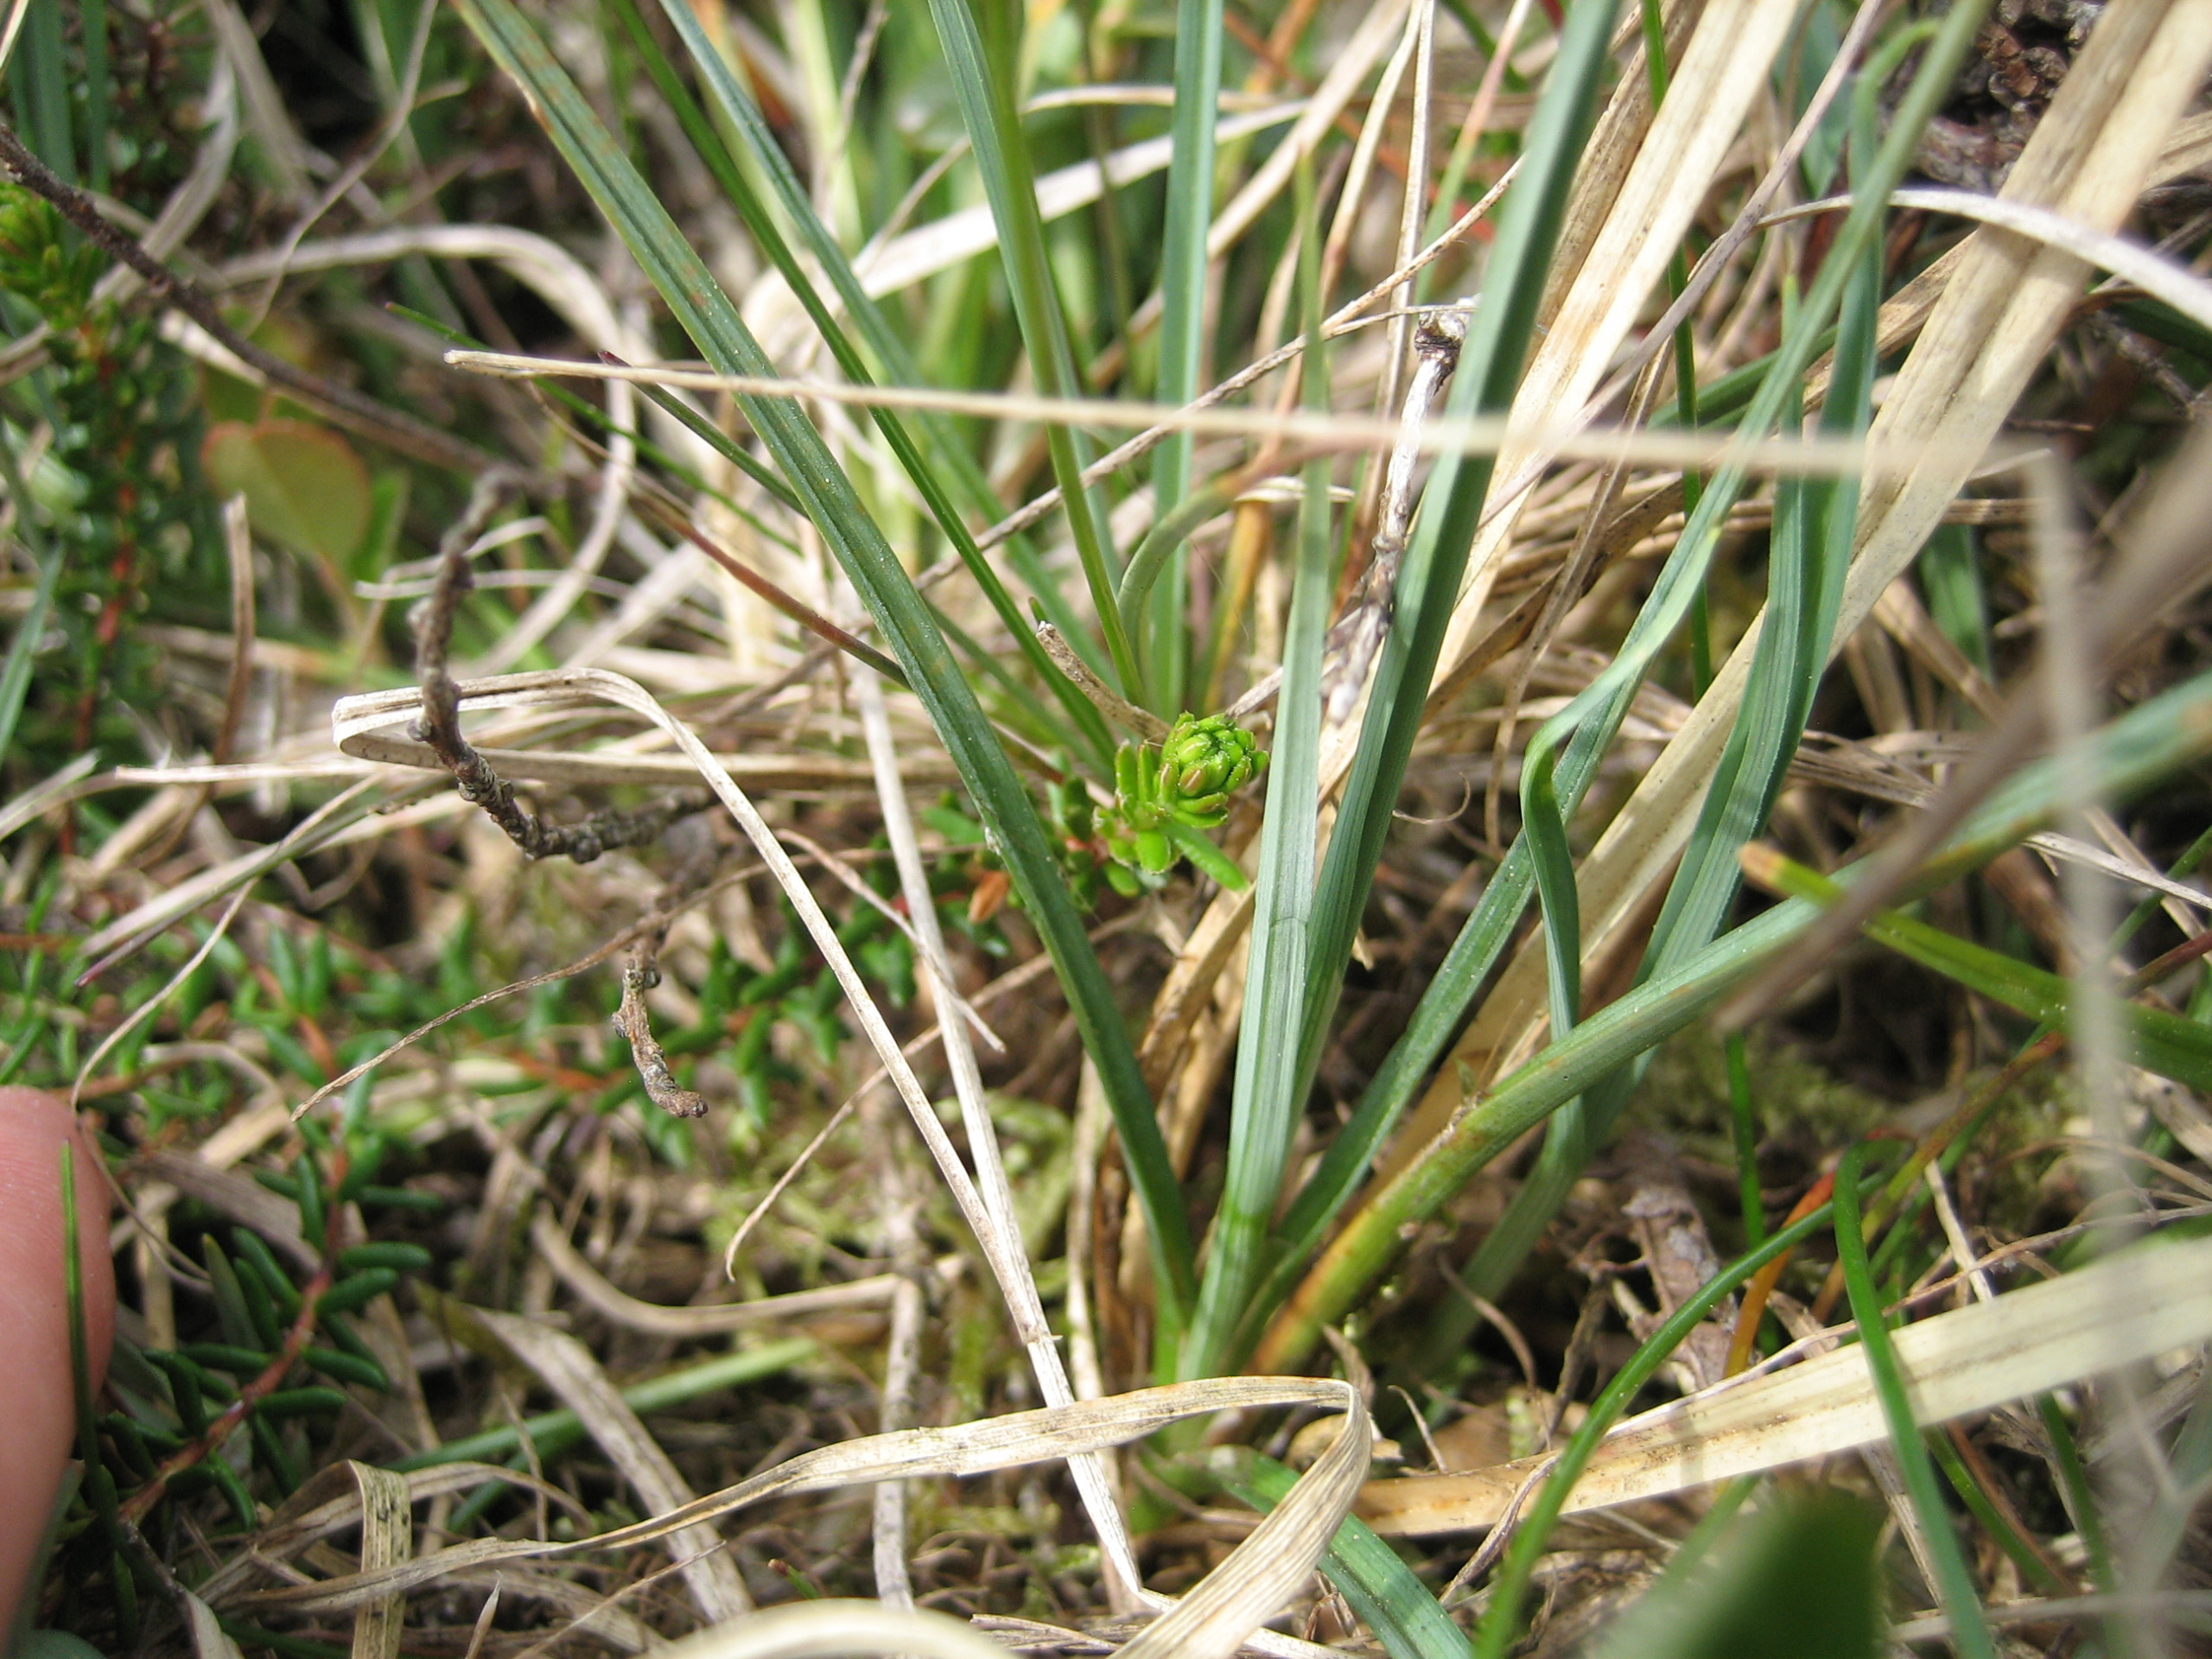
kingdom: Plantae
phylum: Tracheophyta
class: Liliopsida
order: Poales
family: Cyperaceae
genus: Carex
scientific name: Carex panicea
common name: Hirse-star
